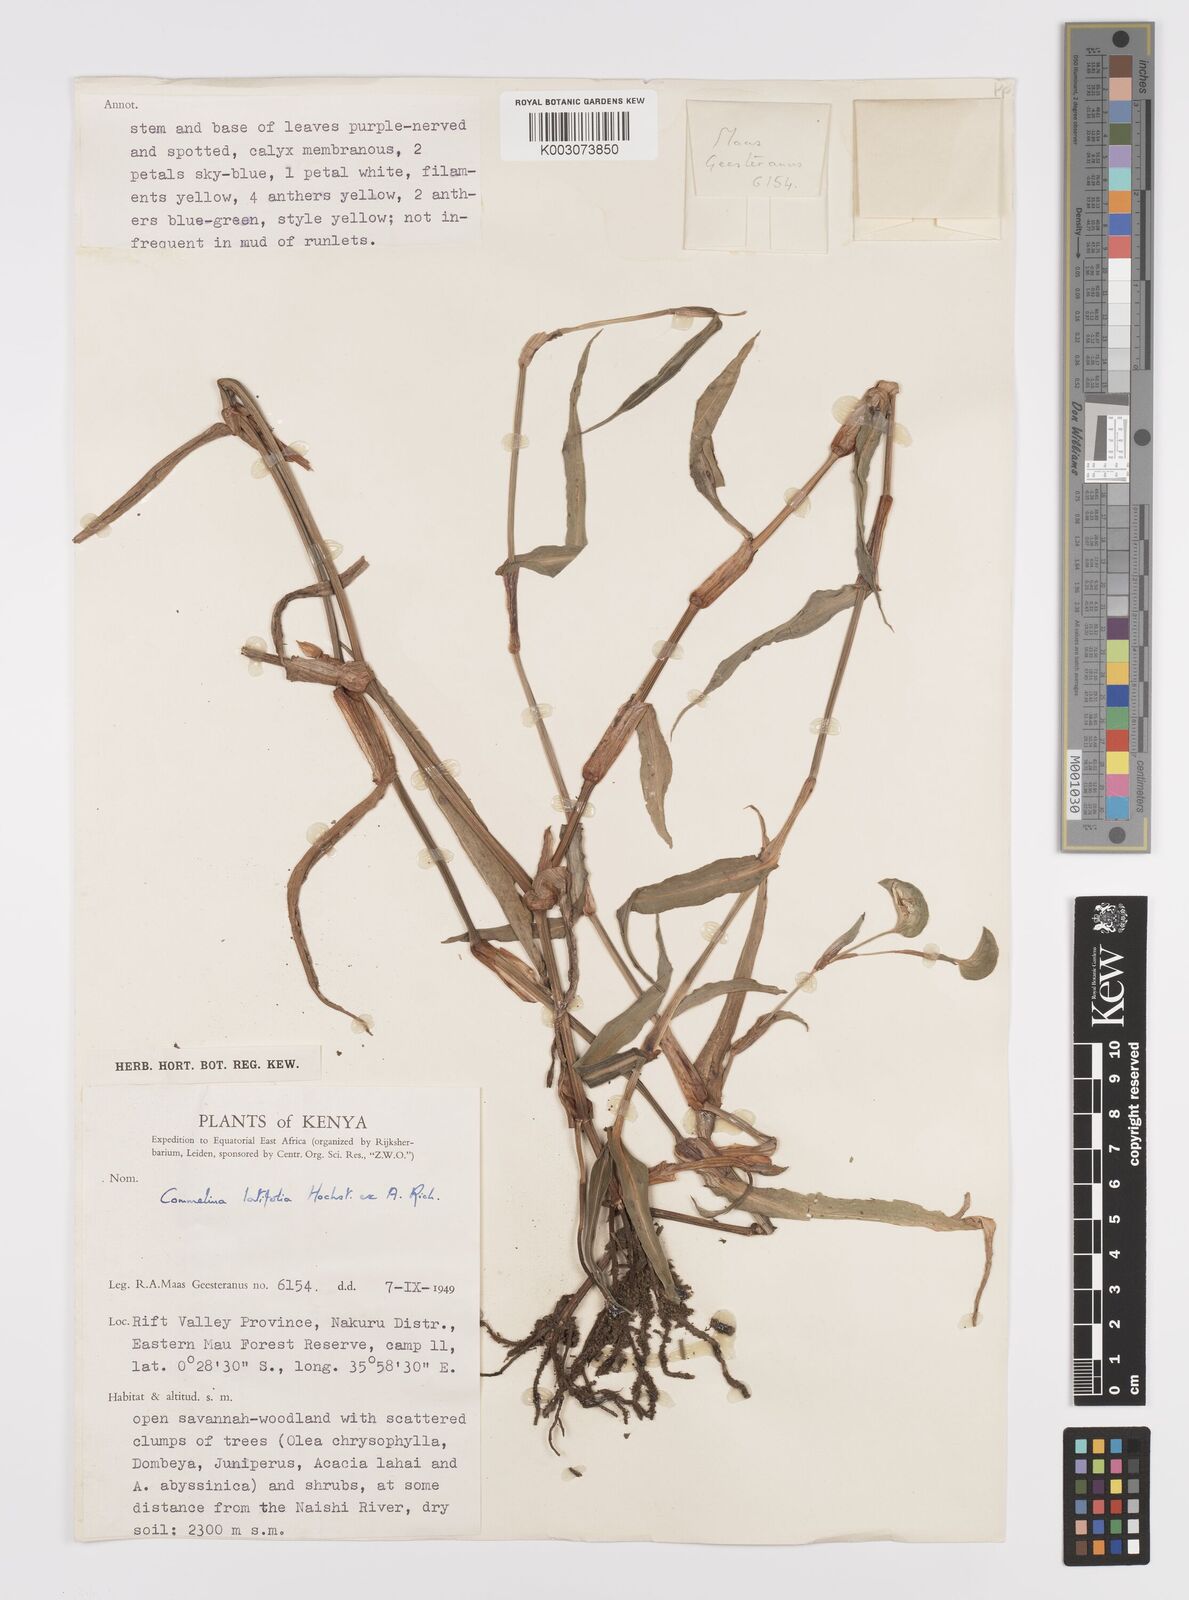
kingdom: Plantae
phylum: Tracheophyta
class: Liliopsida
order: Commelinales
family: Commelinaceae
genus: Commelina
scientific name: Commelina latifolia
